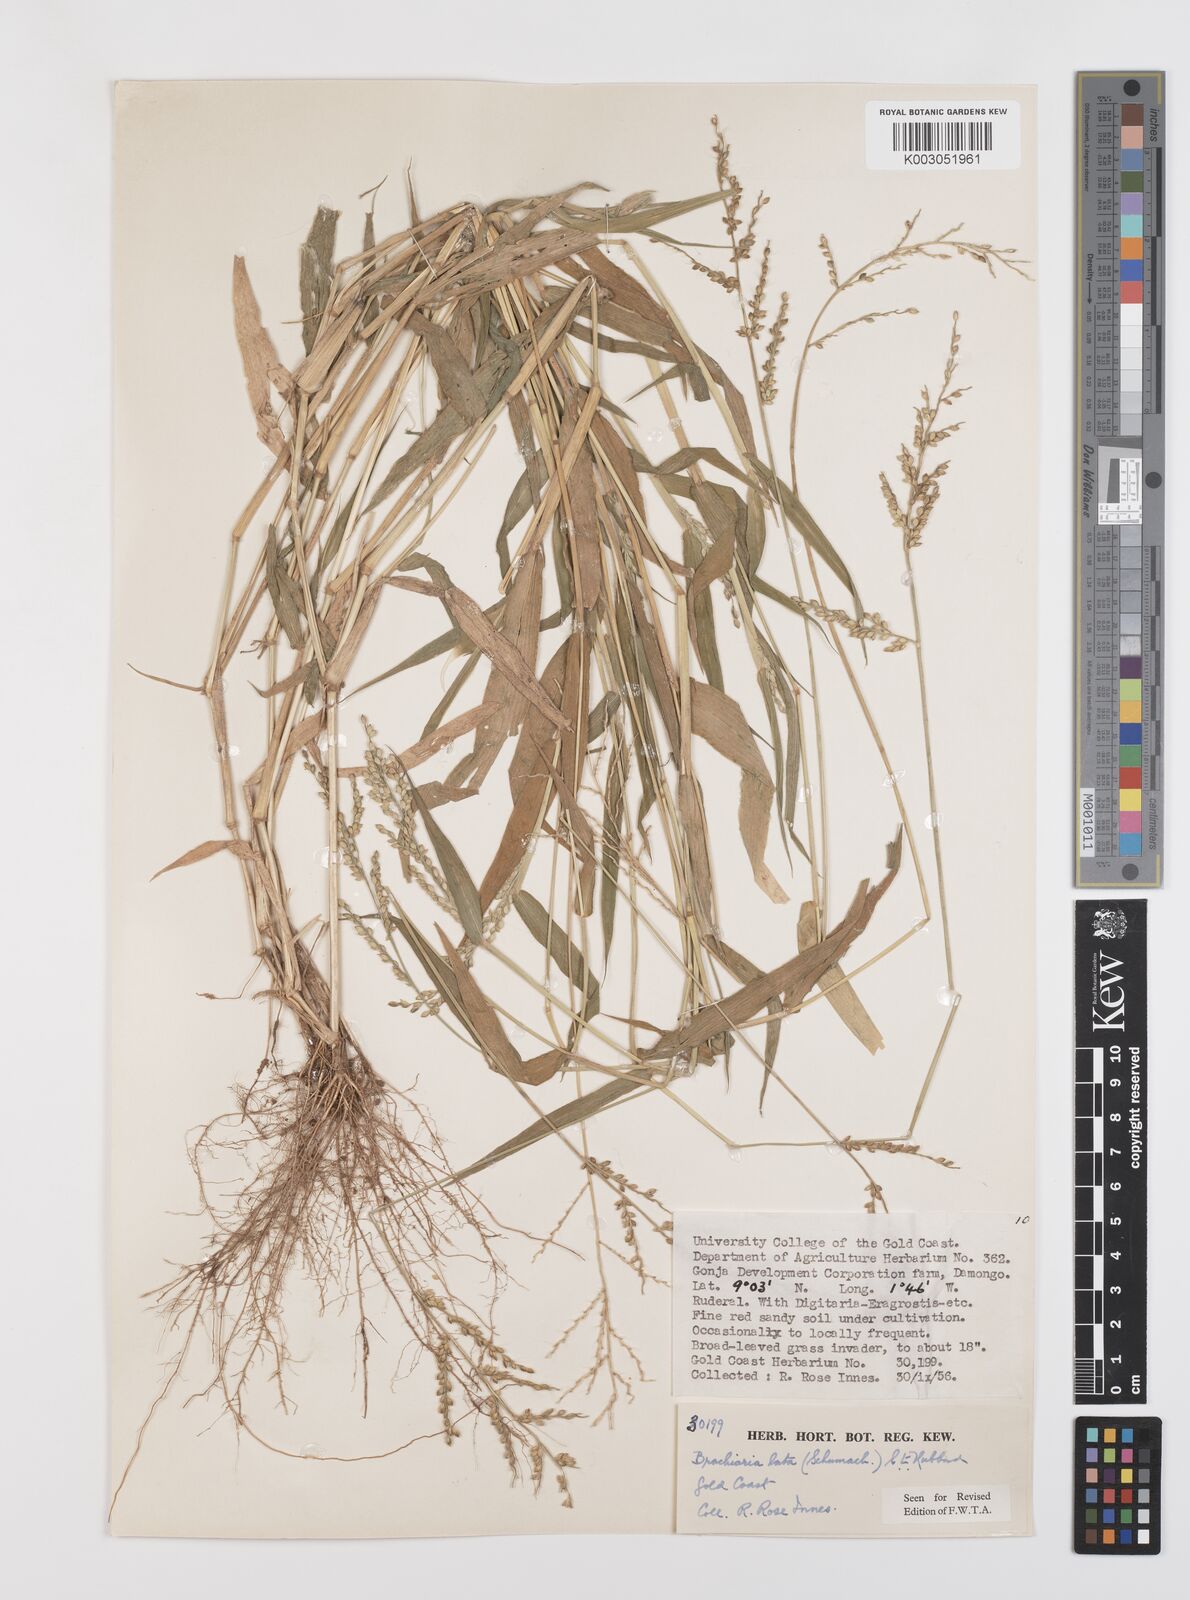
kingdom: Plantae
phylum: Tracheophyta
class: Liliopsida
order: Poales
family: Poaceae
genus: Urochloa
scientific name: Urochloa lata
